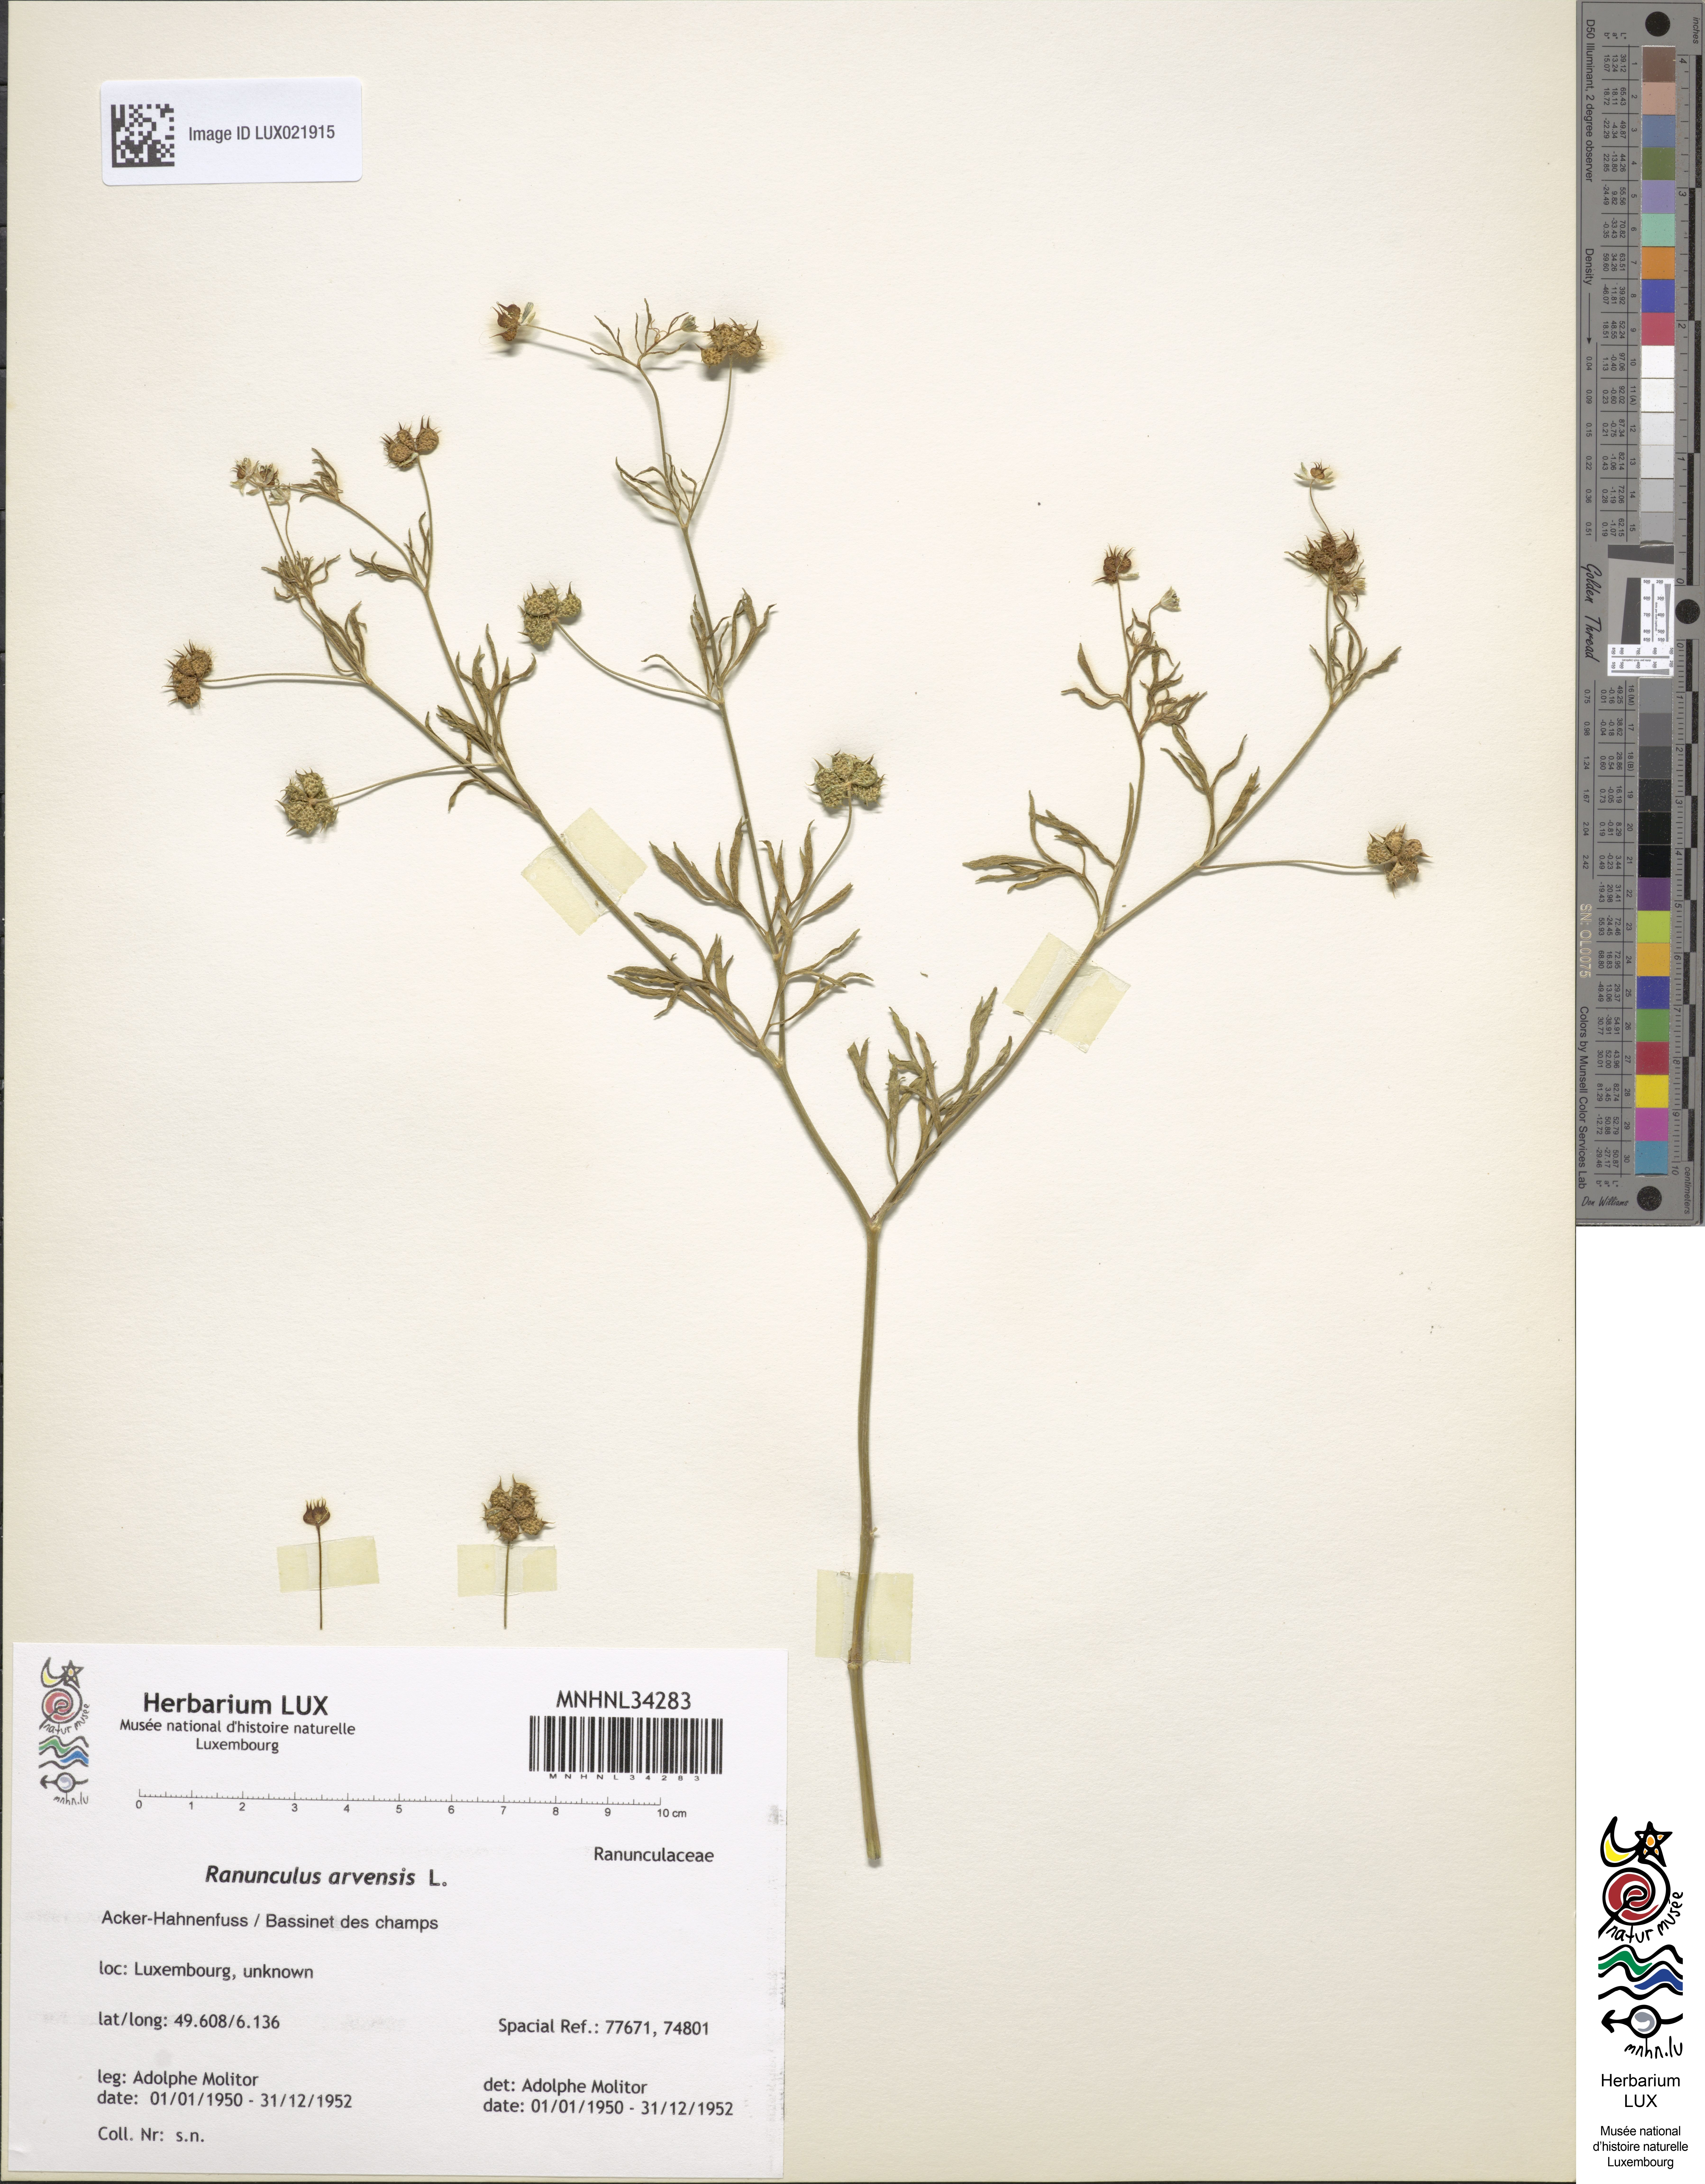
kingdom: Plantae
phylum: Tracheophyta
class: Magnoliopsida
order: Ranunculales
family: Ranunculaceae
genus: Ranunculus
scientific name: Ranunculus arvensis
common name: Corn buttercup
